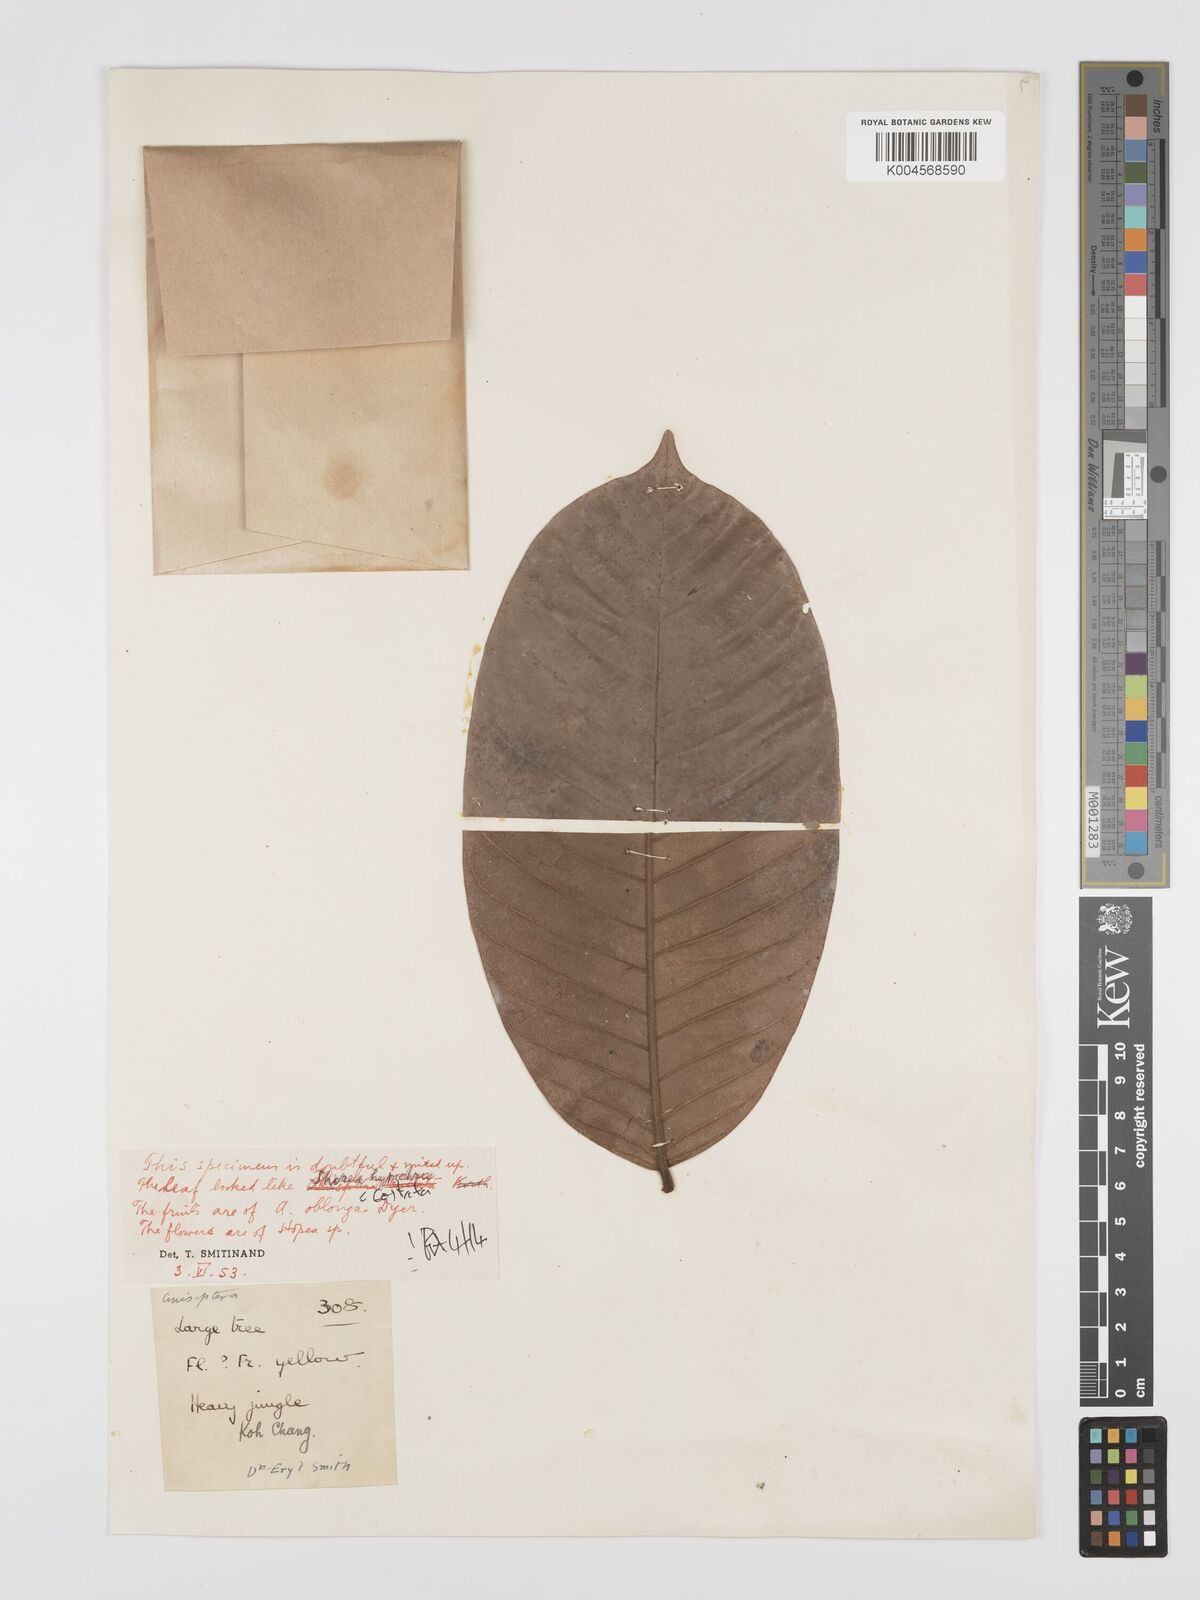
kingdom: Plantae
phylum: Tracheophyta
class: Magnoliopsida
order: Malvales
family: Dipterocarpaceae
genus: Anisoptera
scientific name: Anisoptera
